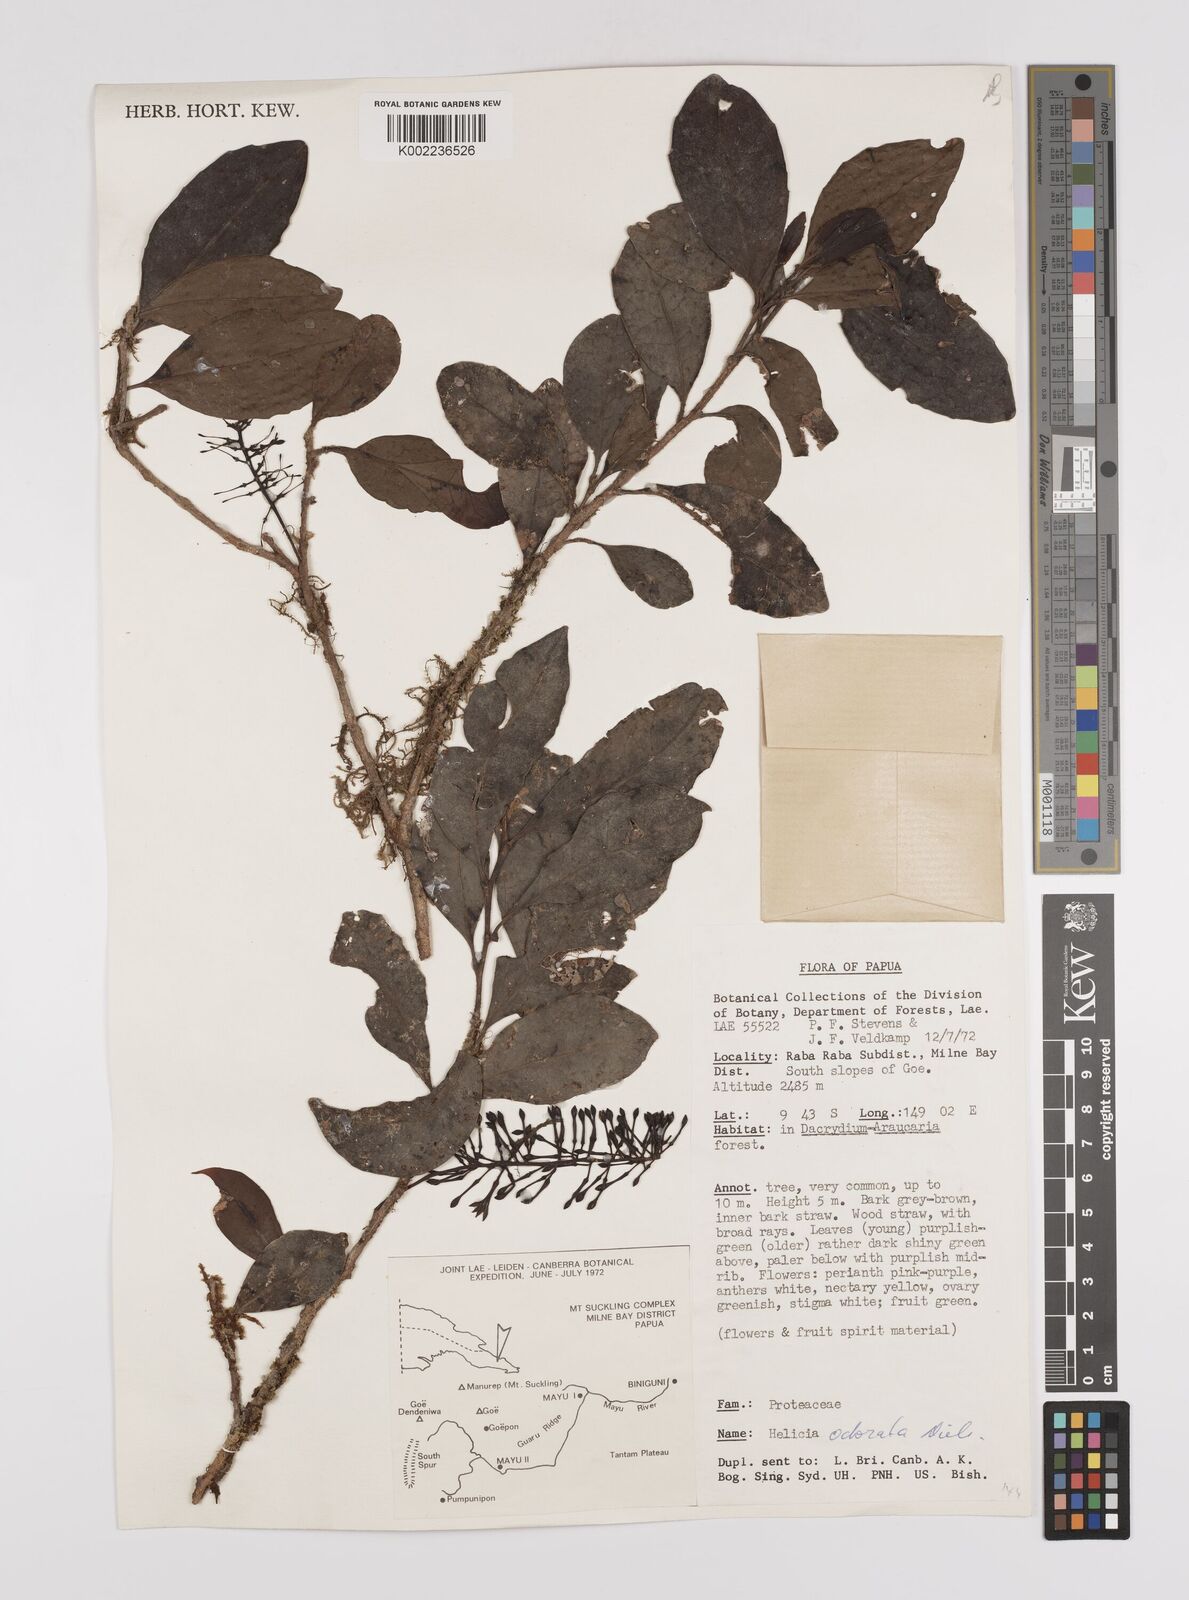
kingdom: Plantae
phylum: Tracheophyta
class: Magnoliopsida
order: Proteales
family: Proteaceae
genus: Helicia
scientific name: Helicia odorata
